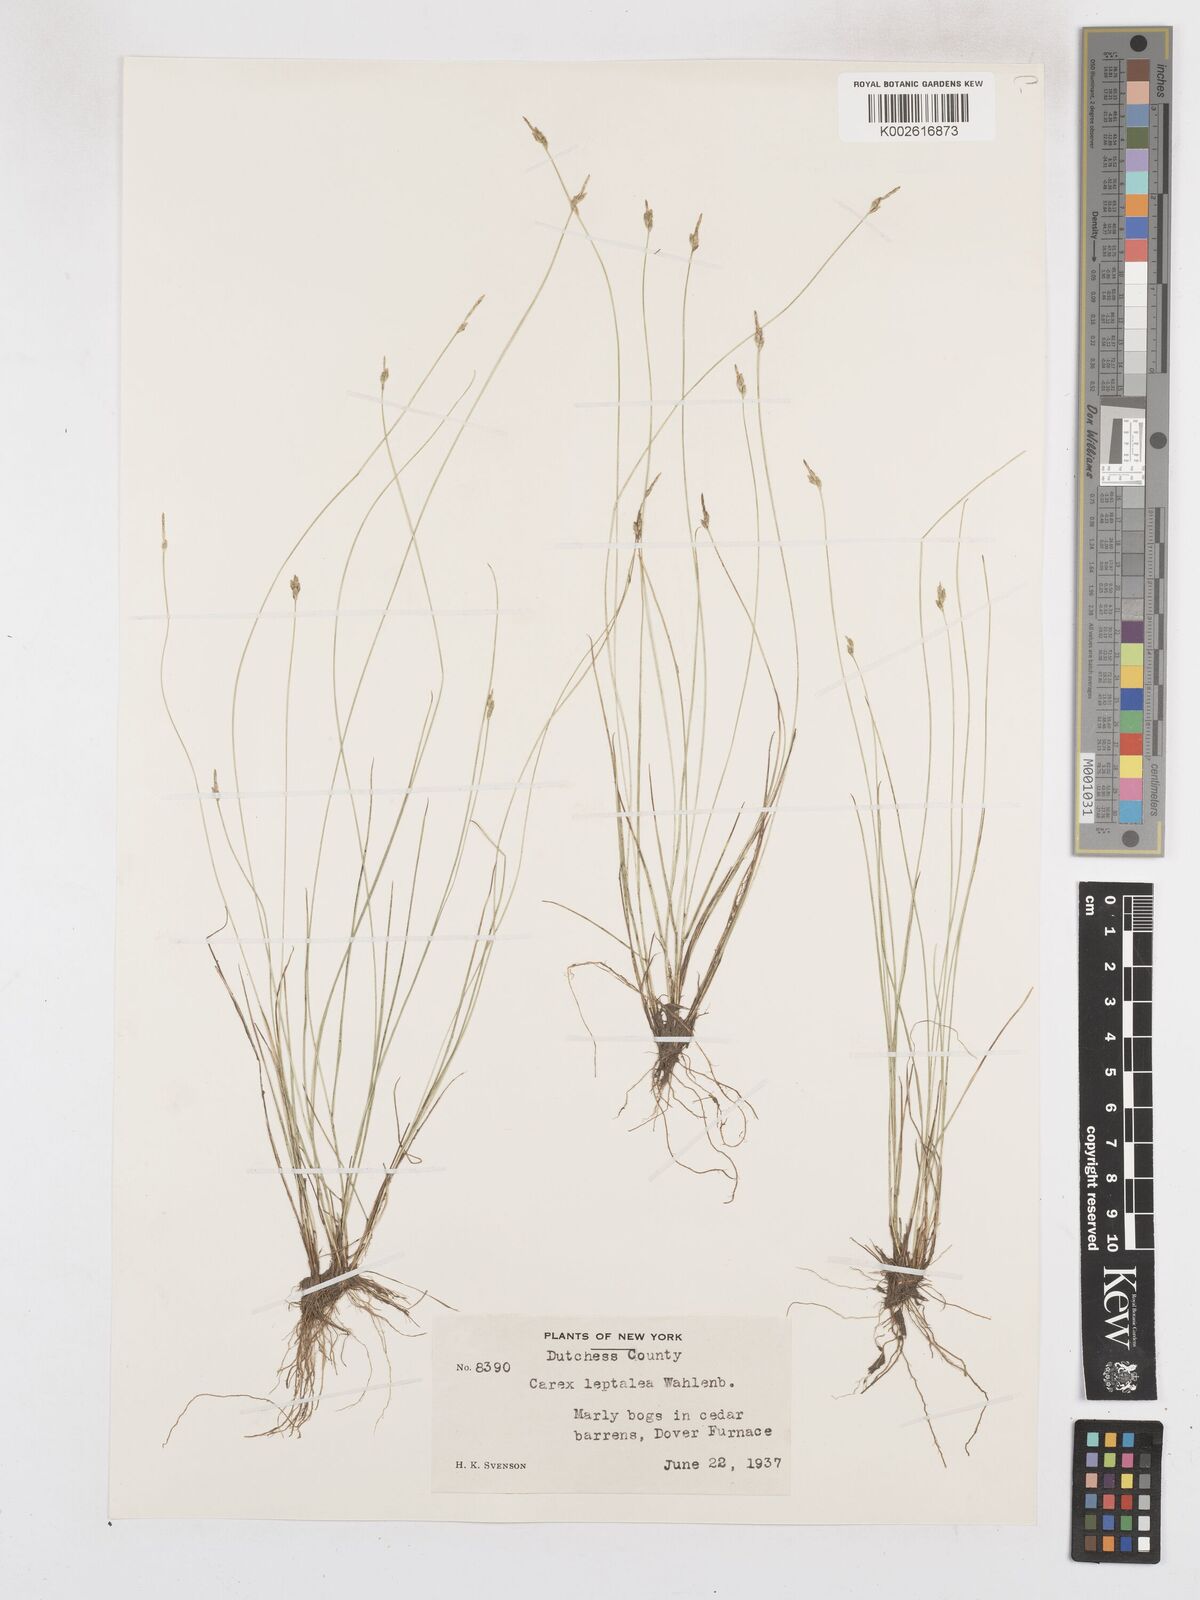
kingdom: Plantae
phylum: Tracheophyta
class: Liliopsida
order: Poales
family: Cyperaceae
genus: Carex
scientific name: Carex leptalea
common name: Bristly-stalked sedge
